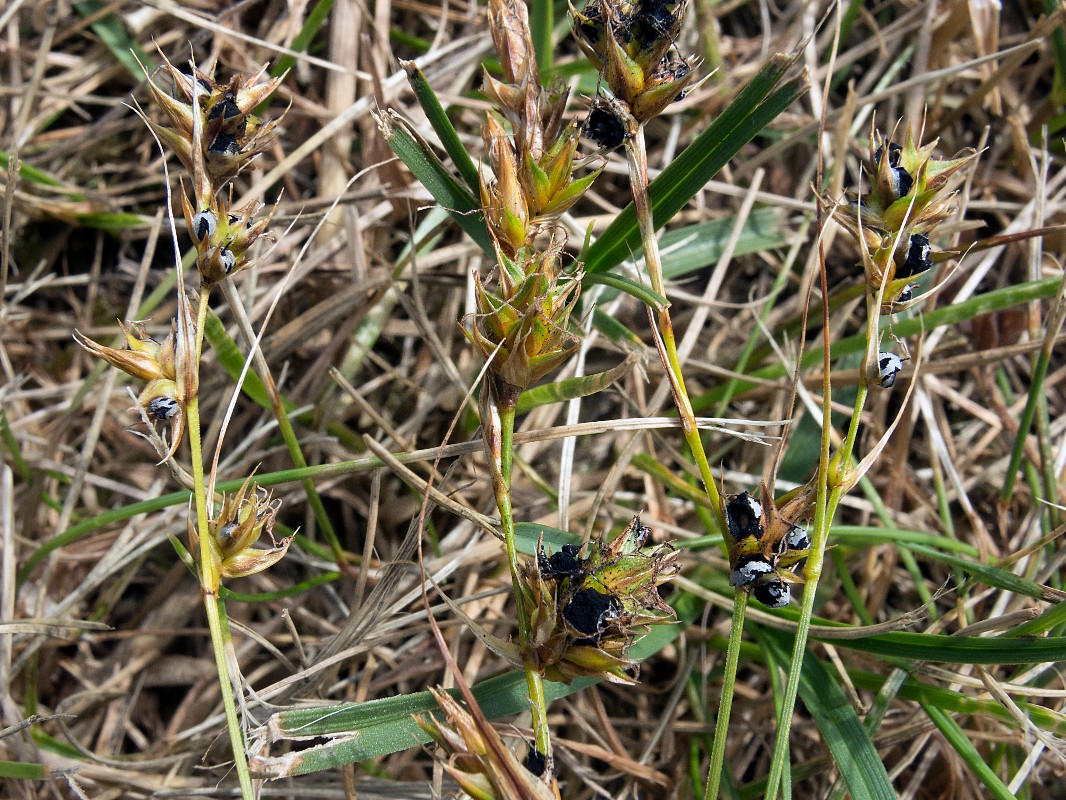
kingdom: Fungi
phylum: Basidiomycota
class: Ustilaginomycetes
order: Ustilaginales
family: Anthracoideaceae
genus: Anthracoidea
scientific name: Anthracoidea arenariae
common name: sandstar-brand
